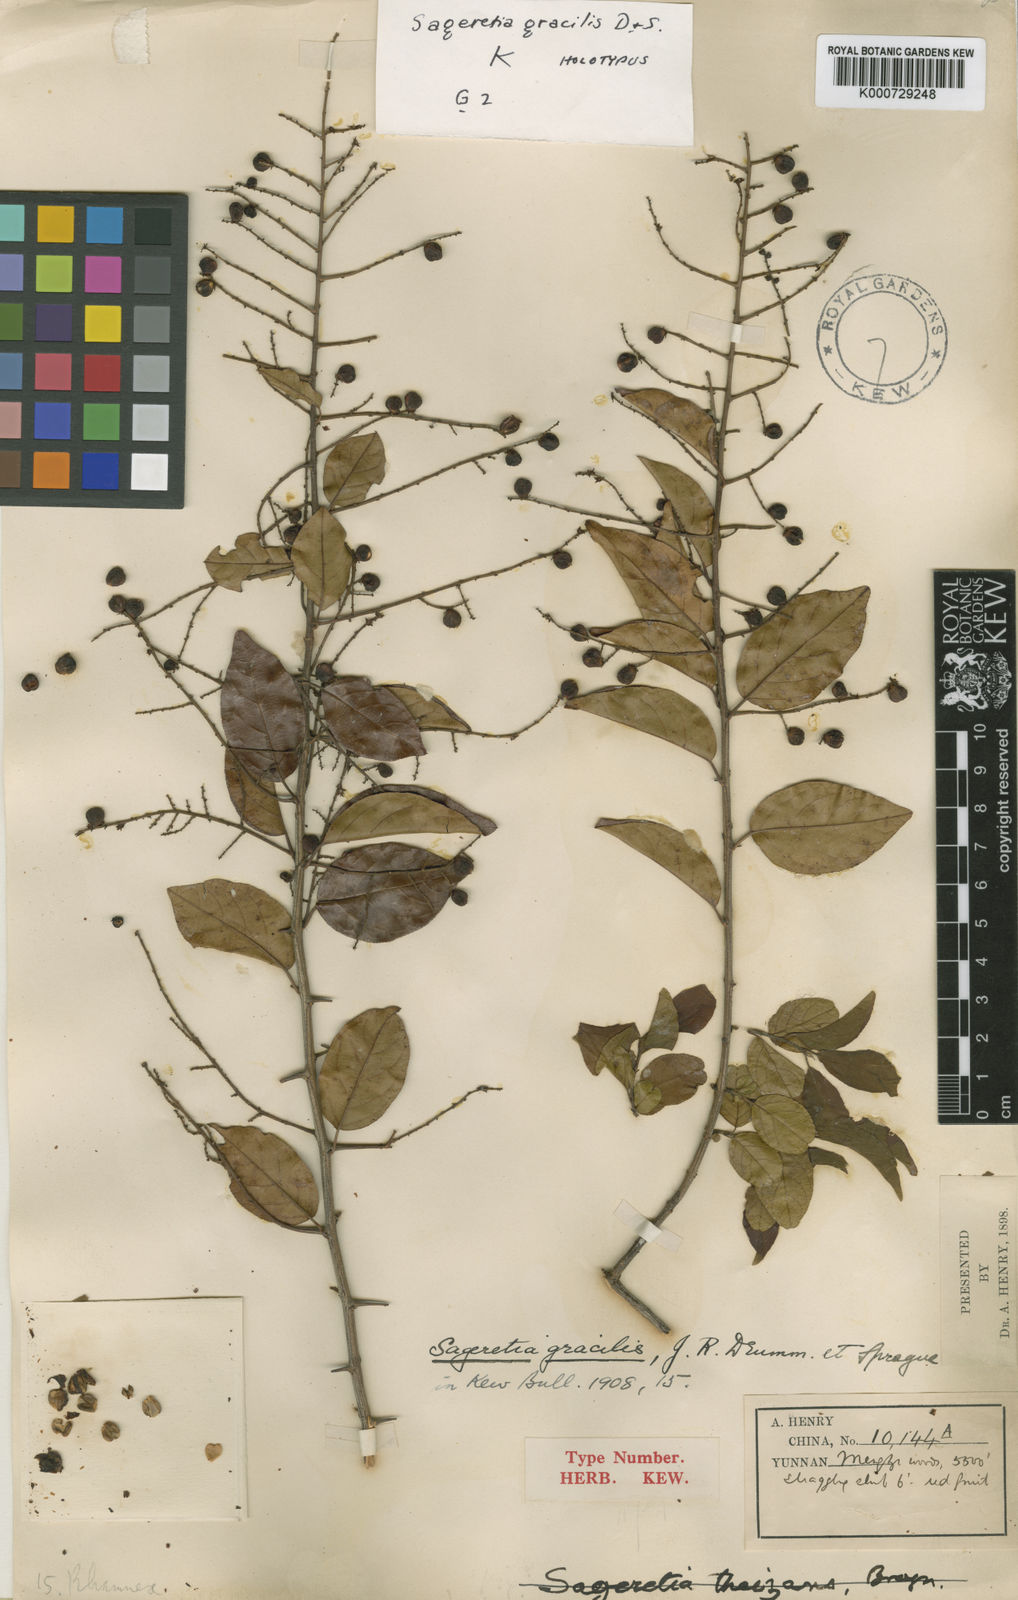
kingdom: Plantae
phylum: Tracheophyta
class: Magnoliopsida
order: Rosales
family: Rhamnaceae
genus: Sageretia
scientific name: Sageretia gracilis
